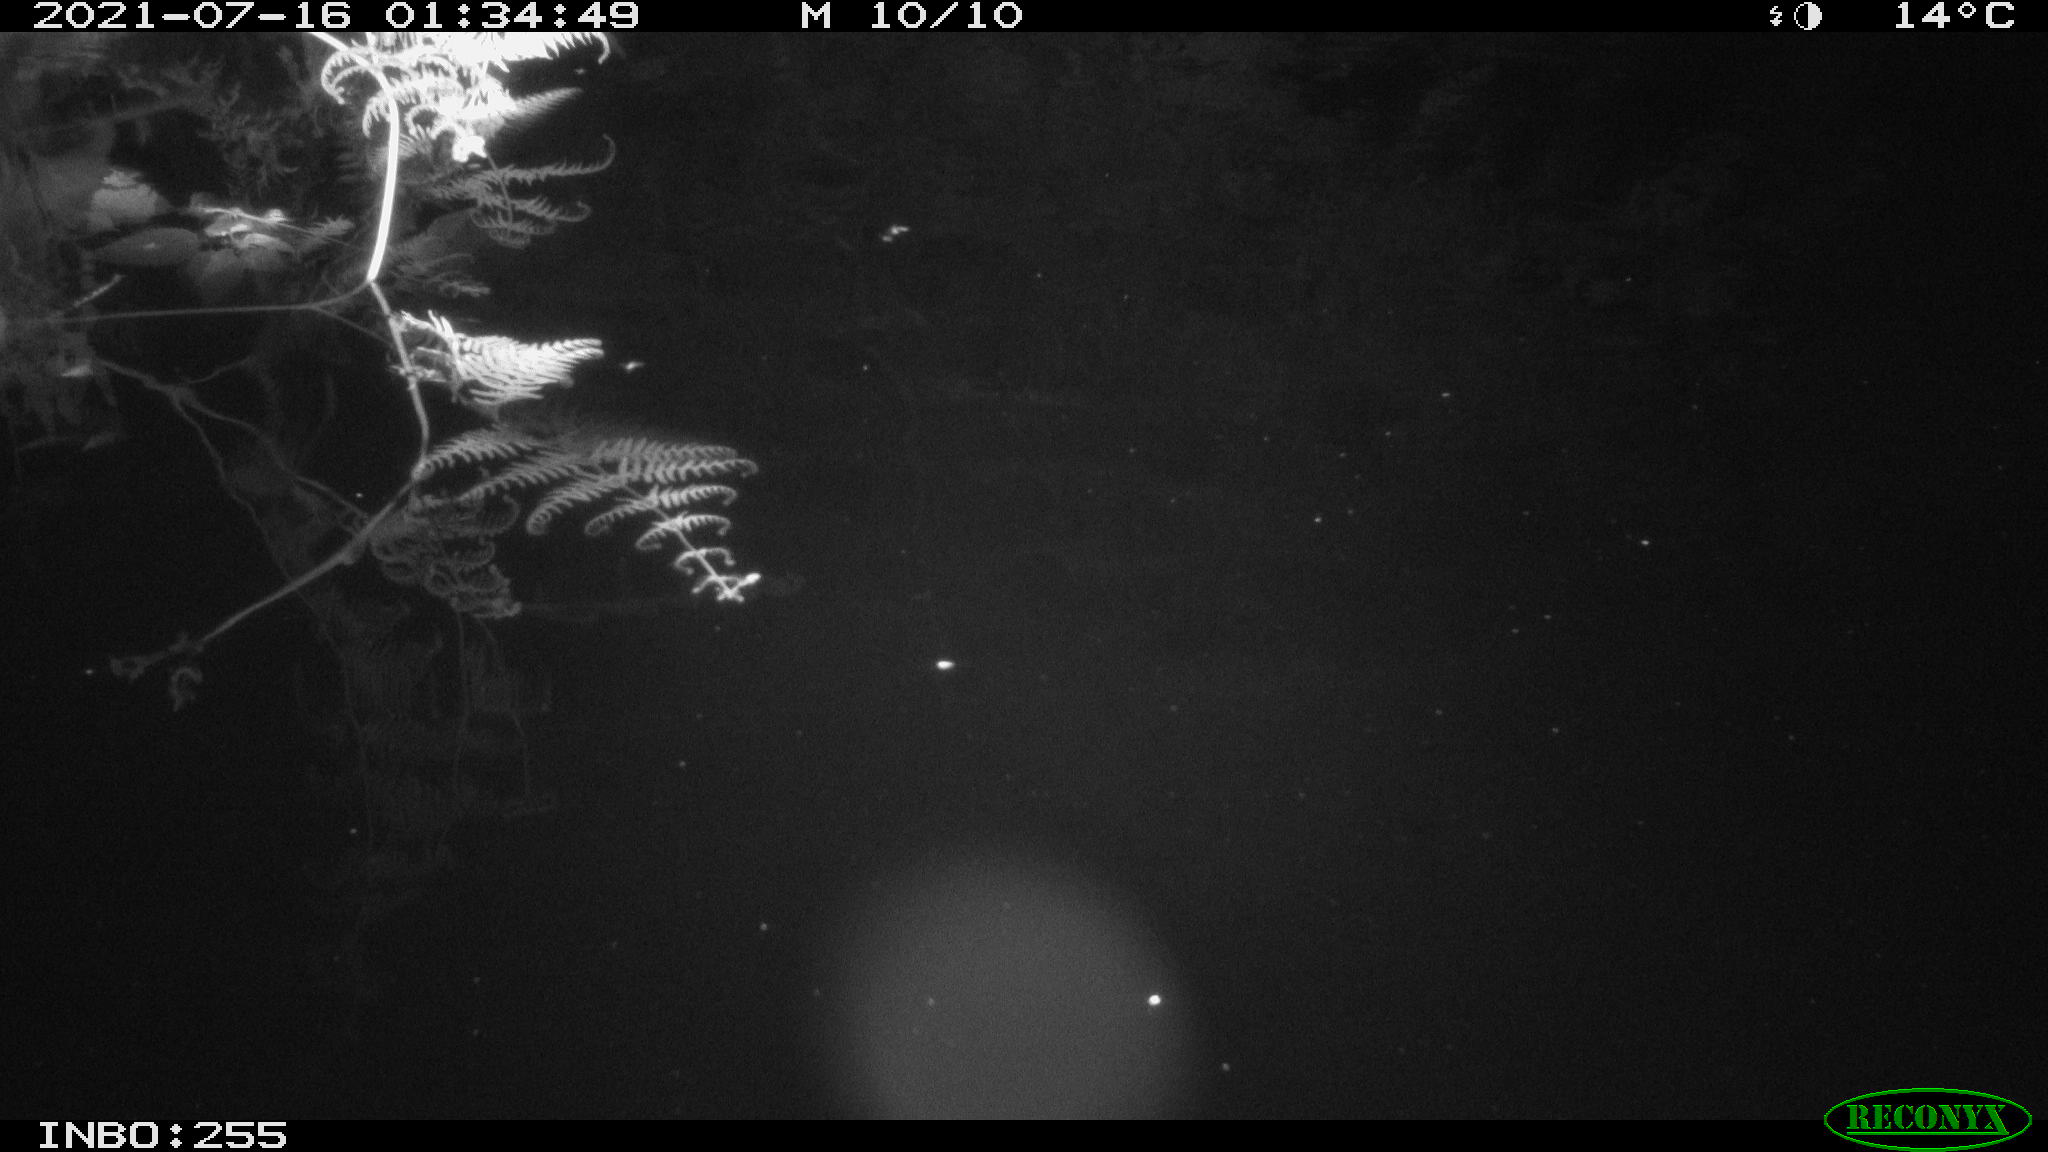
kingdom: Animalia
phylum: Chordata
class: Mammalia
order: Rodentia
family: Cricetidae
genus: Ondatra
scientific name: Ondatra zibethicus
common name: Muskrat
